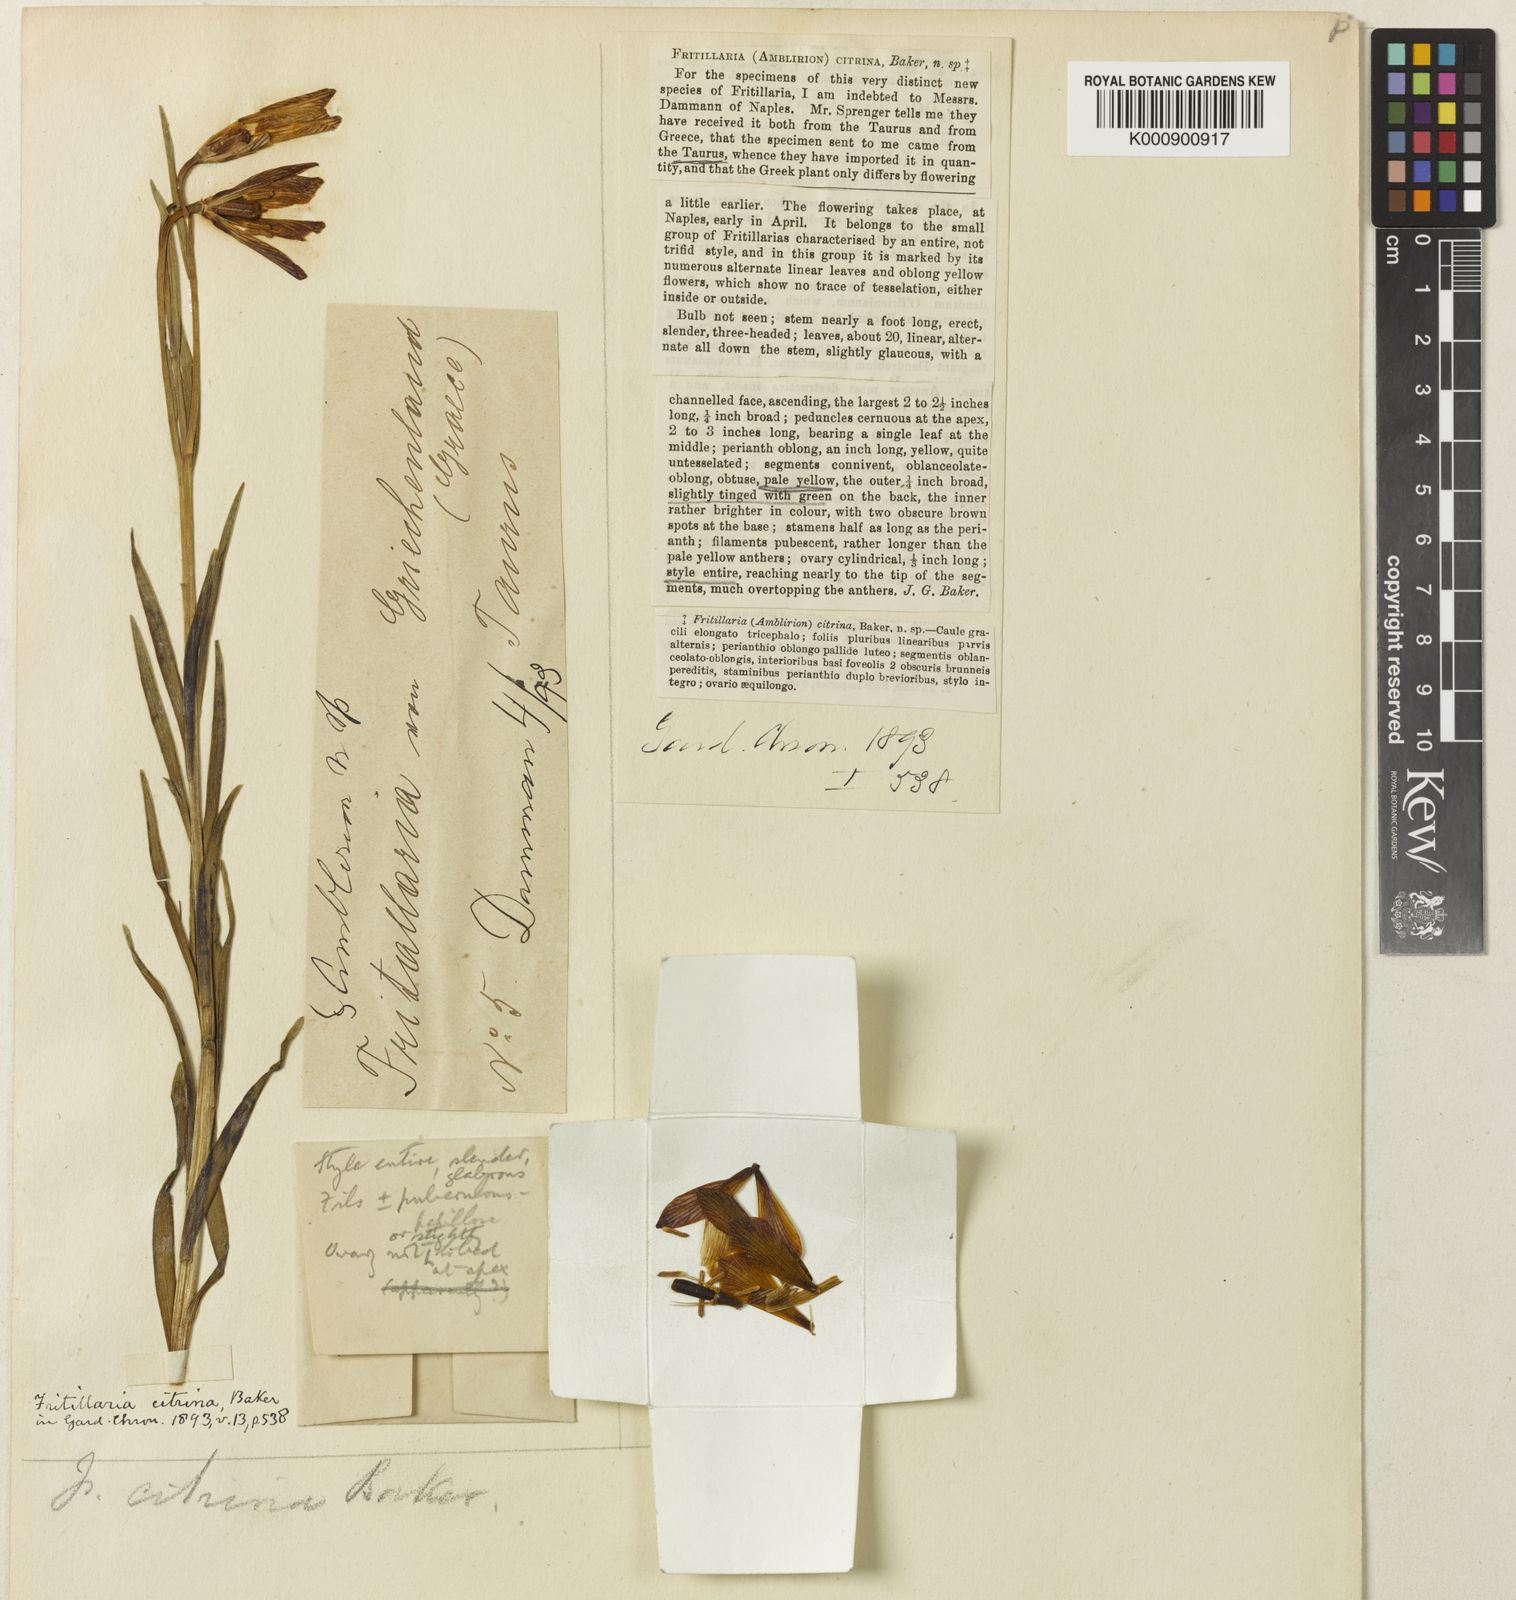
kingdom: Plantae
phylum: Tracheophyta
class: Liliopsida
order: Liliales
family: Liliaceae
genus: Fritillaria
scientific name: Fritillaria bithynica
